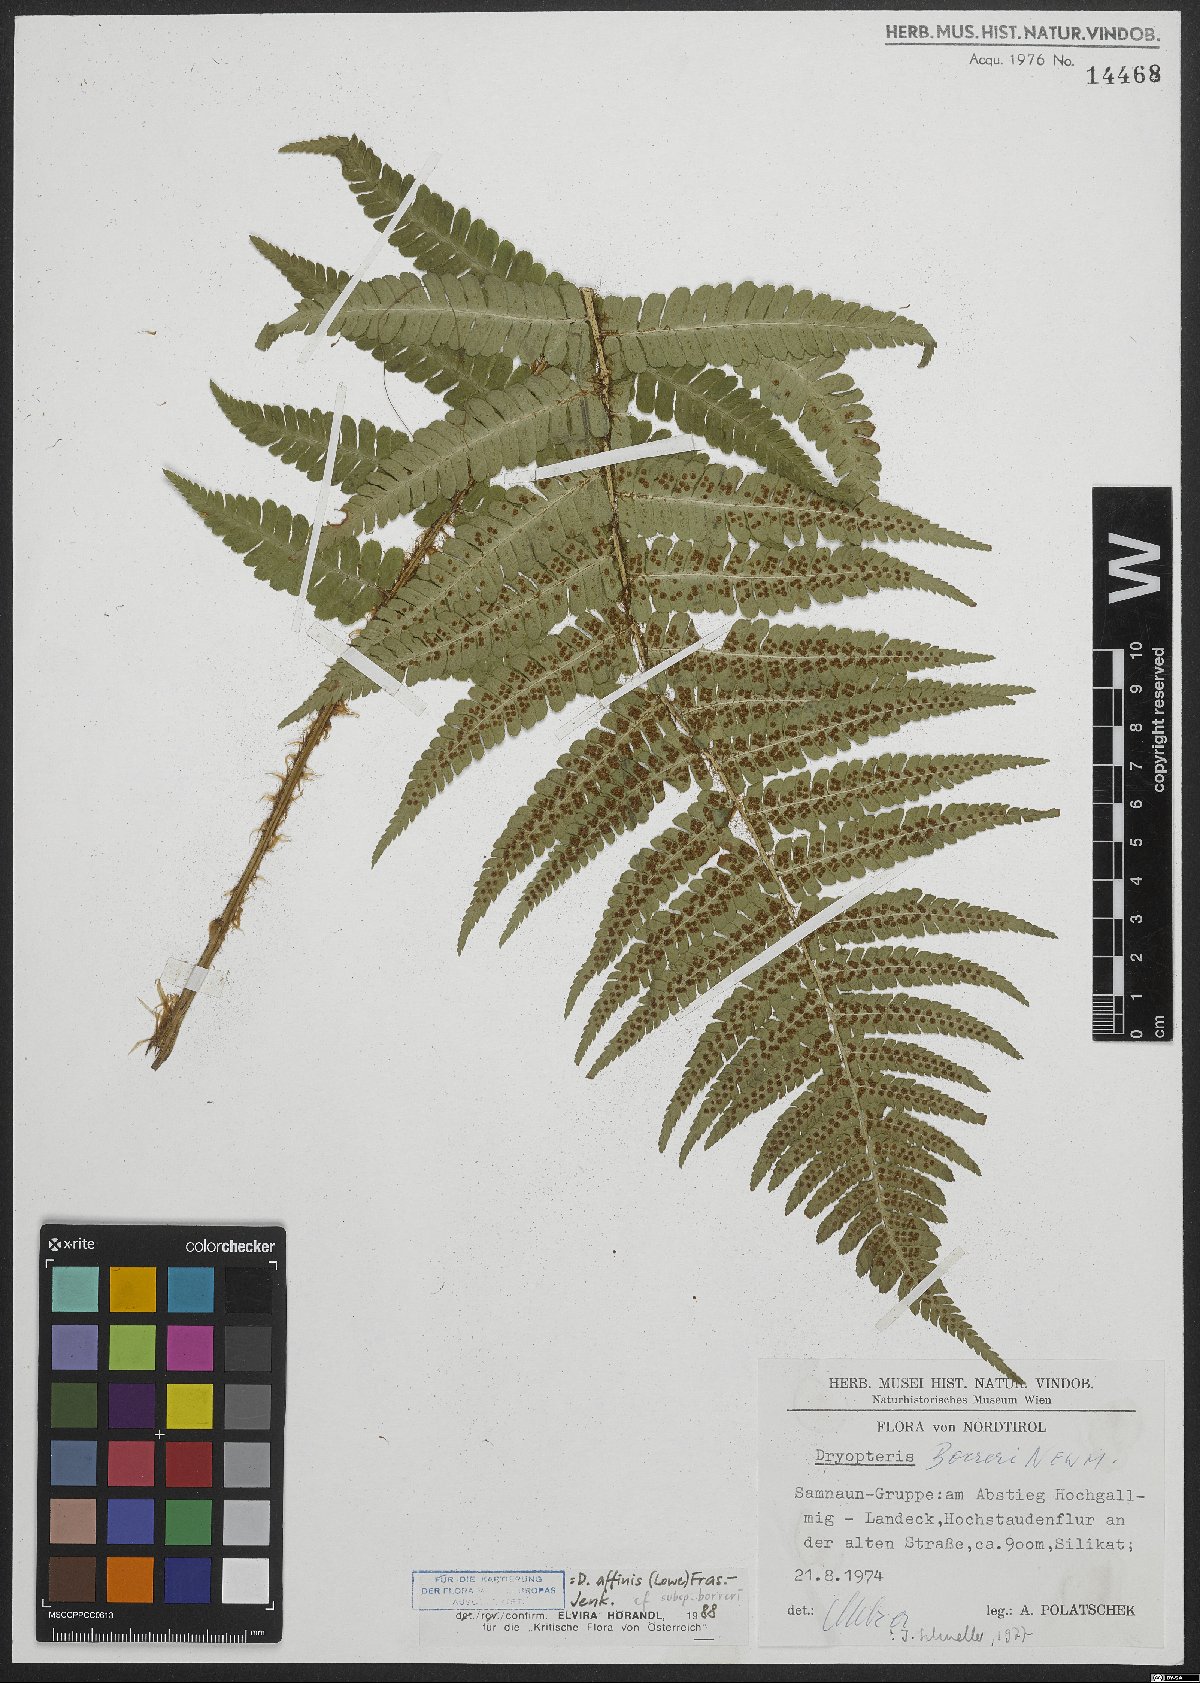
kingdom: Plantae
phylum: Tracheophyta
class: Polypodiopsida
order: Polypodiales
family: Dryopteridaceae
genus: Dryopteris
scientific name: Dryopteris borreri
